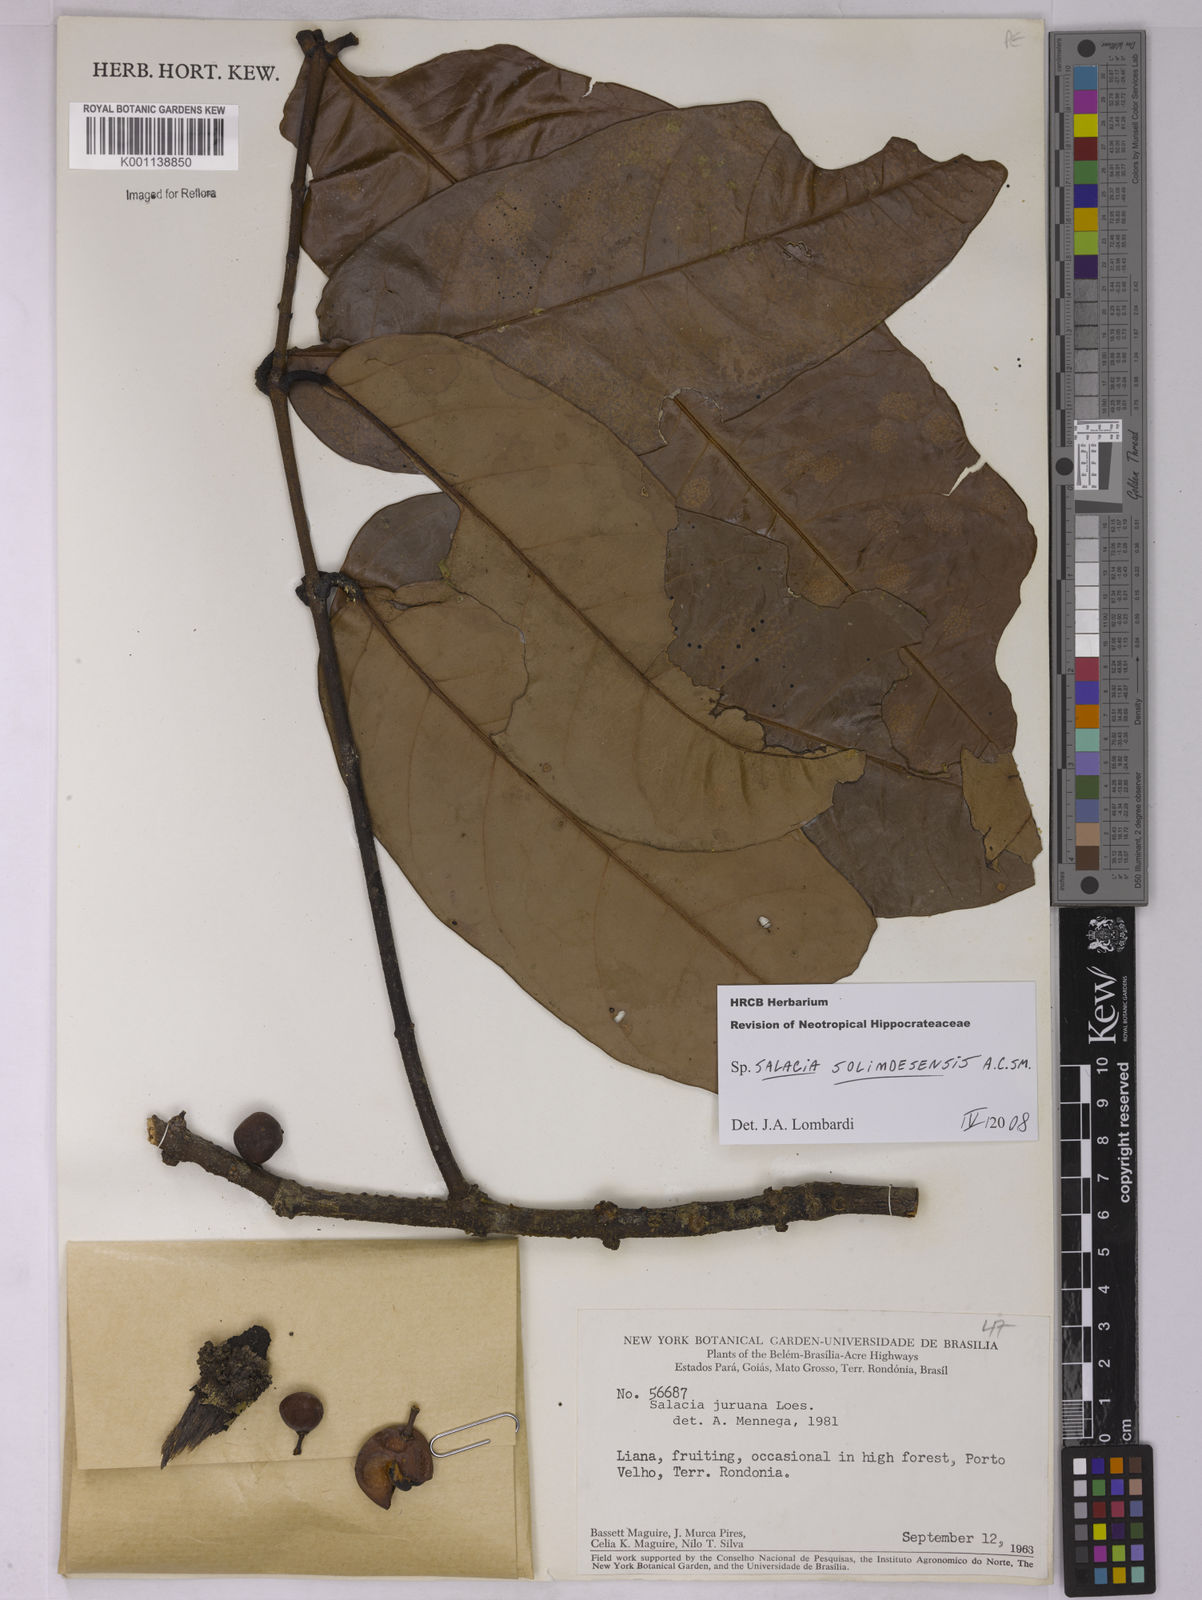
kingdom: Plantae
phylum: Tracheophyta
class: Magnoliopsida
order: Celastrales
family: Celastraceae
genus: Salacia
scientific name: Salacia solimoesensis
